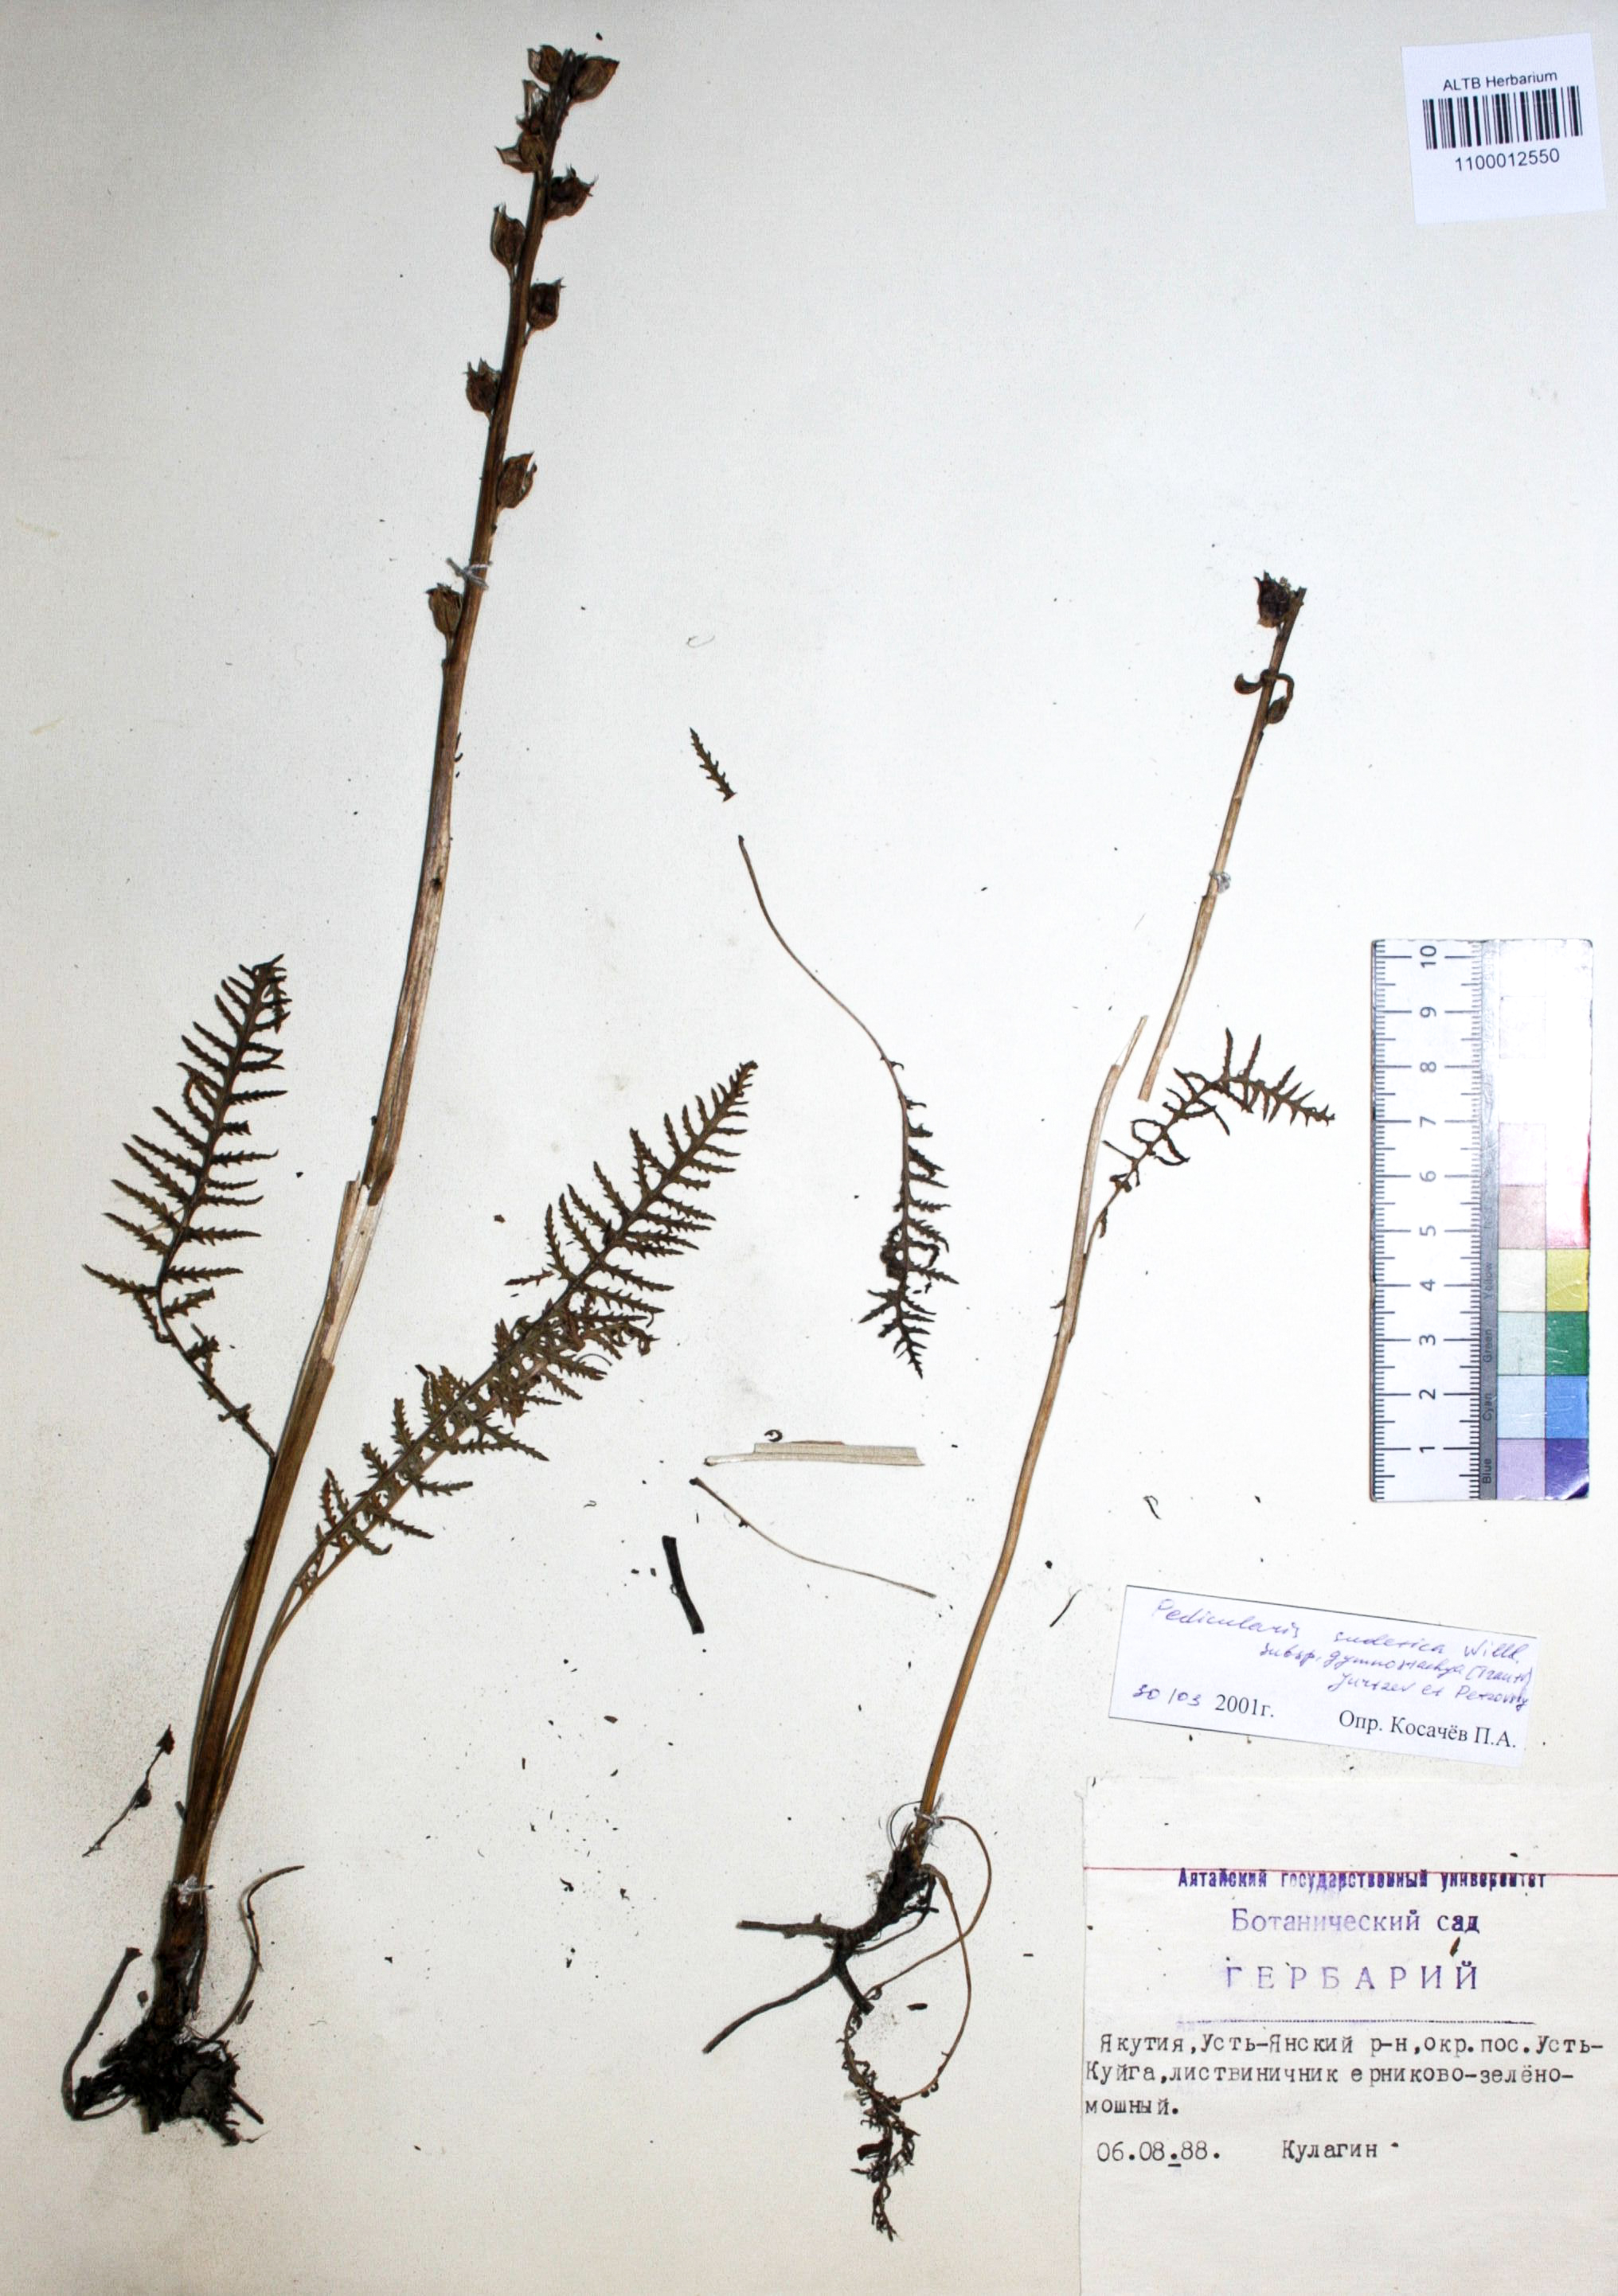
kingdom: Plantae
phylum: Tracheophyta
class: Magnoliopsida
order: Lamiales
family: Orobanchaceae
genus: Pedicularis
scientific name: Pedicularis gymnostachya
